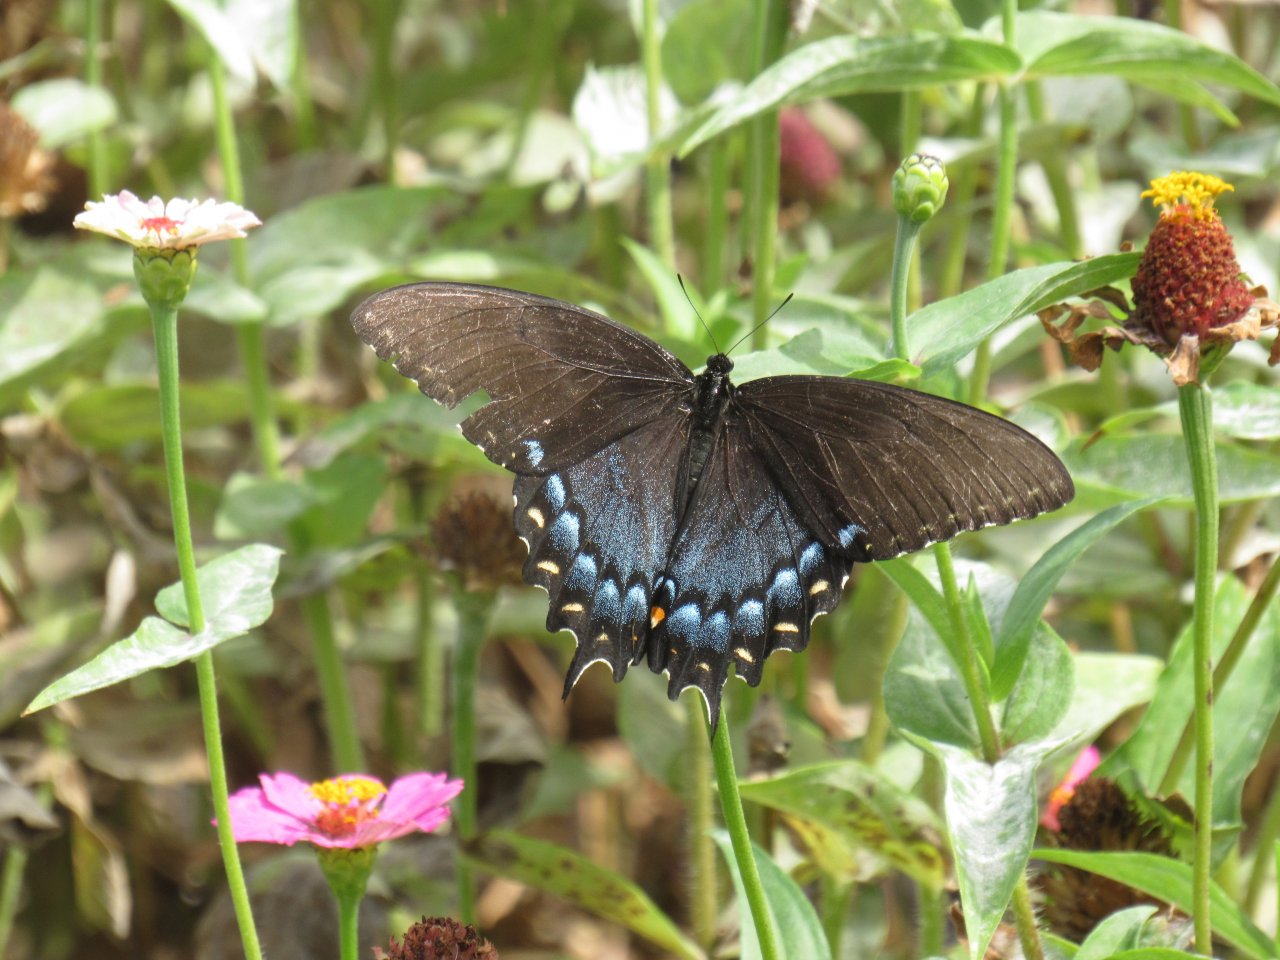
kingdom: Animalia
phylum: Arthropoda
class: Insecta
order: Lepidoptera
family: Papilionidae
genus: Pterourus
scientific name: Pterourus glaucus
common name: Eastern Tiger Swallowtail
